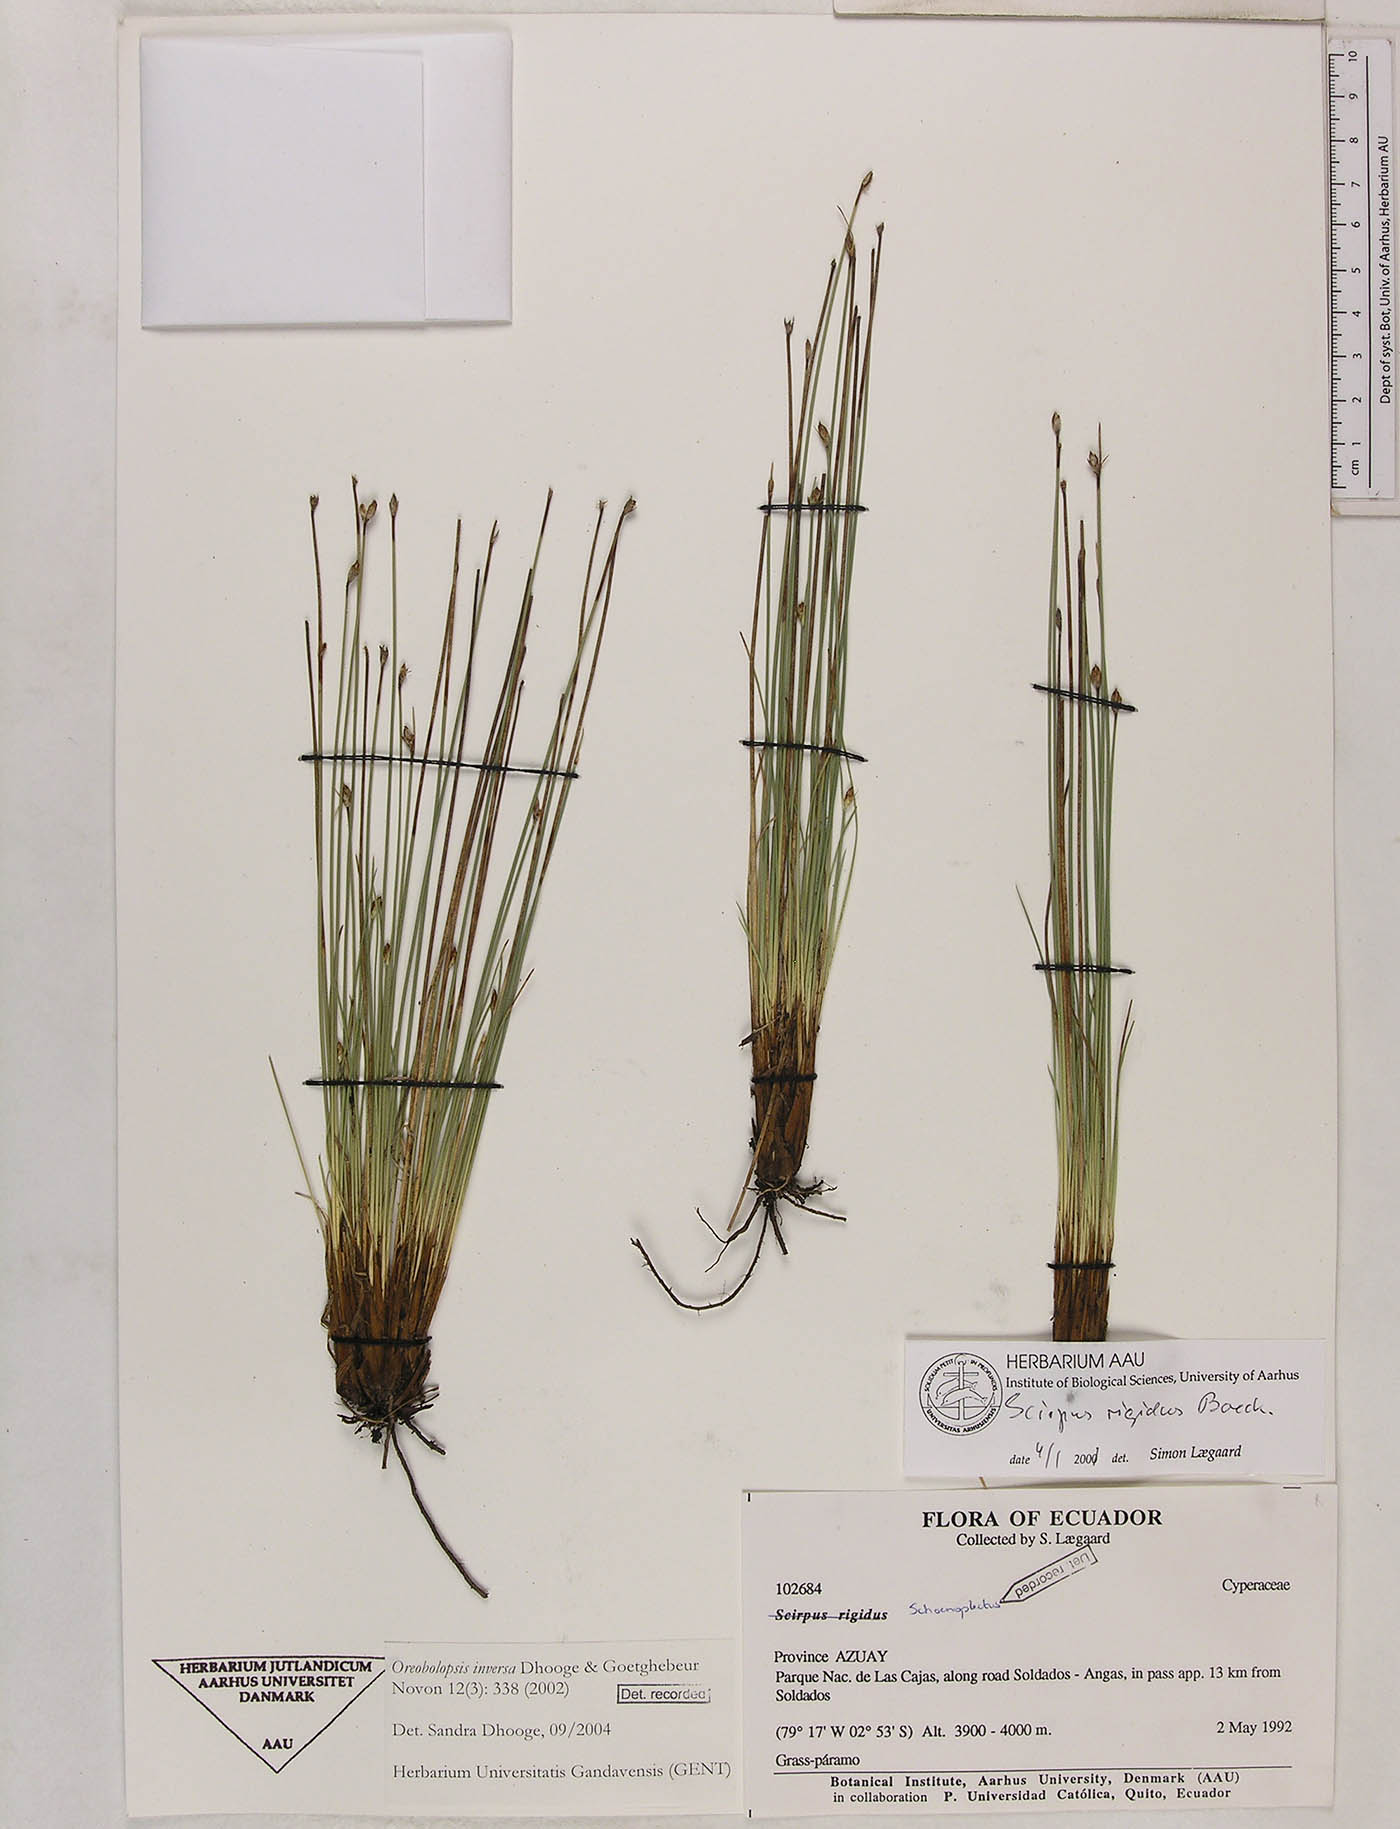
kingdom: Plantae
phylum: Tracheophyta
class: Liliopsida
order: Poales
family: Cyperaceae
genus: Trichophorum
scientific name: Trichophorum inversum
